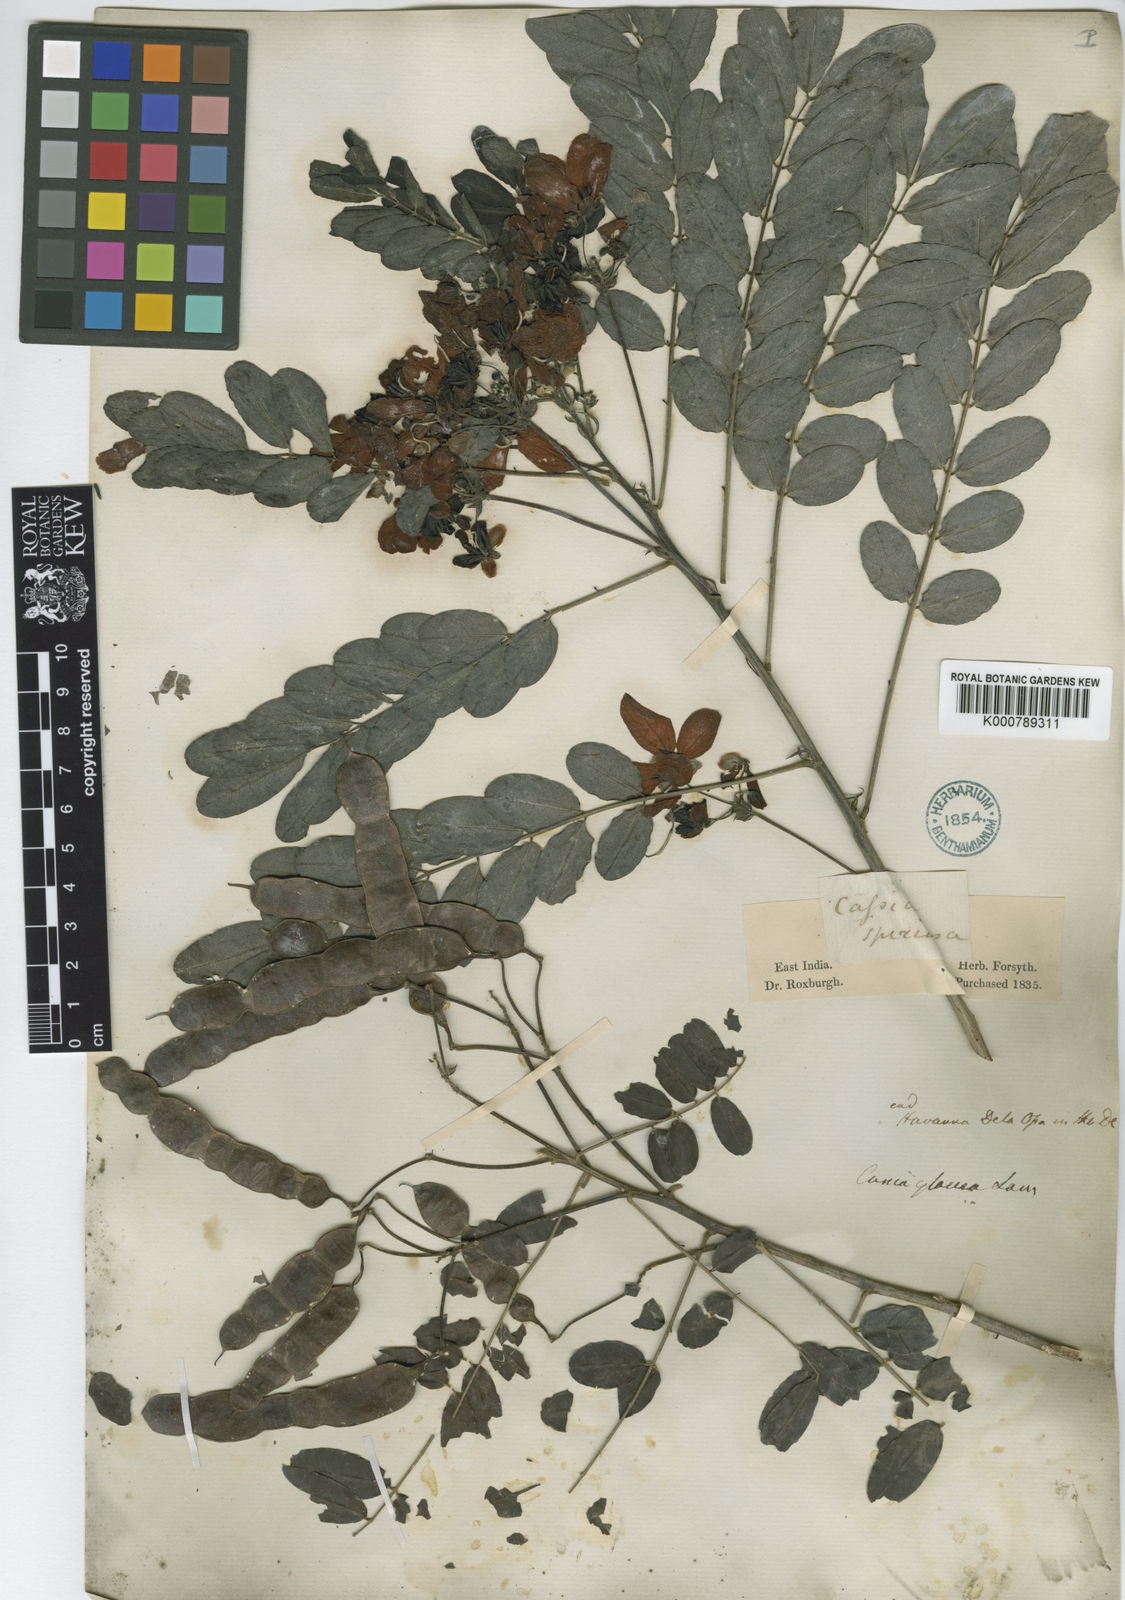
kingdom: Plantae
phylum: Tracheophyta
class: Magnoliopsida
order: Fabales
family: Fabaceae
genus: Senna
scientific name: Senna surattensis
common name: Glossy shower
